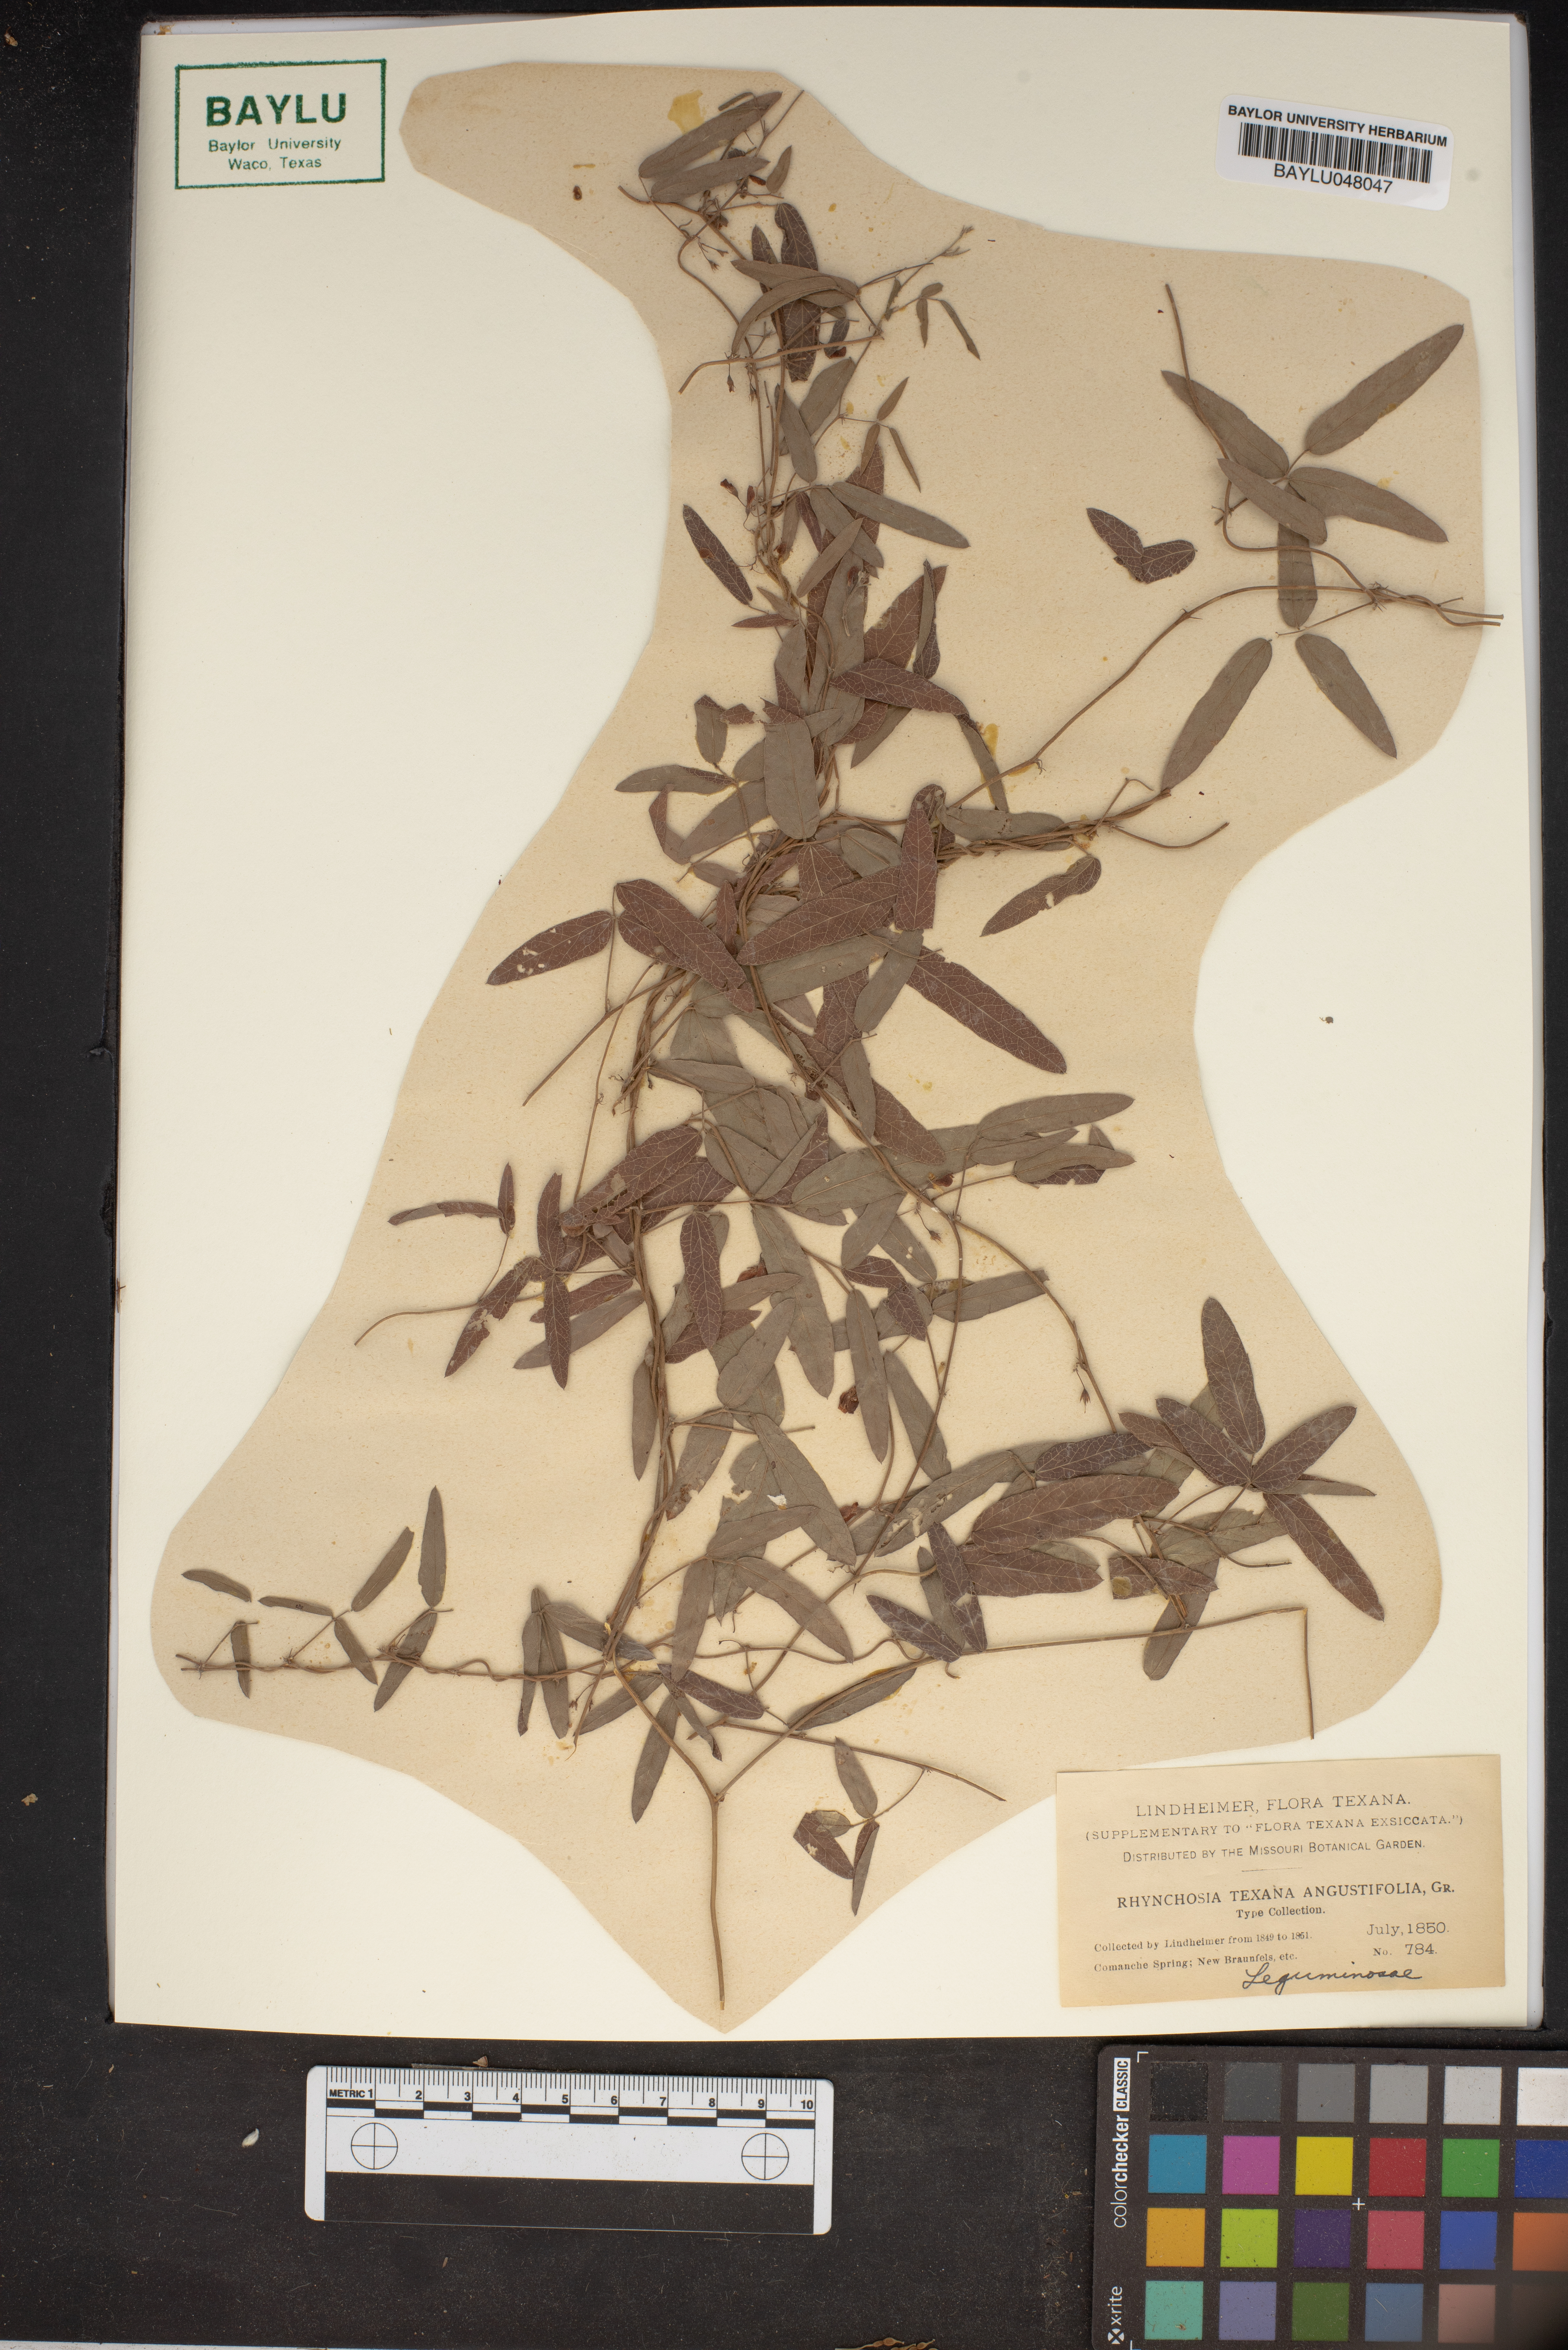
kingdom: Plantae
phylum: Tracheophyta
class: Magnoliopsida
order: Fabales
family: Fabaceae
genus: Rhynchosia
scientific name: Rhynchosia senna
